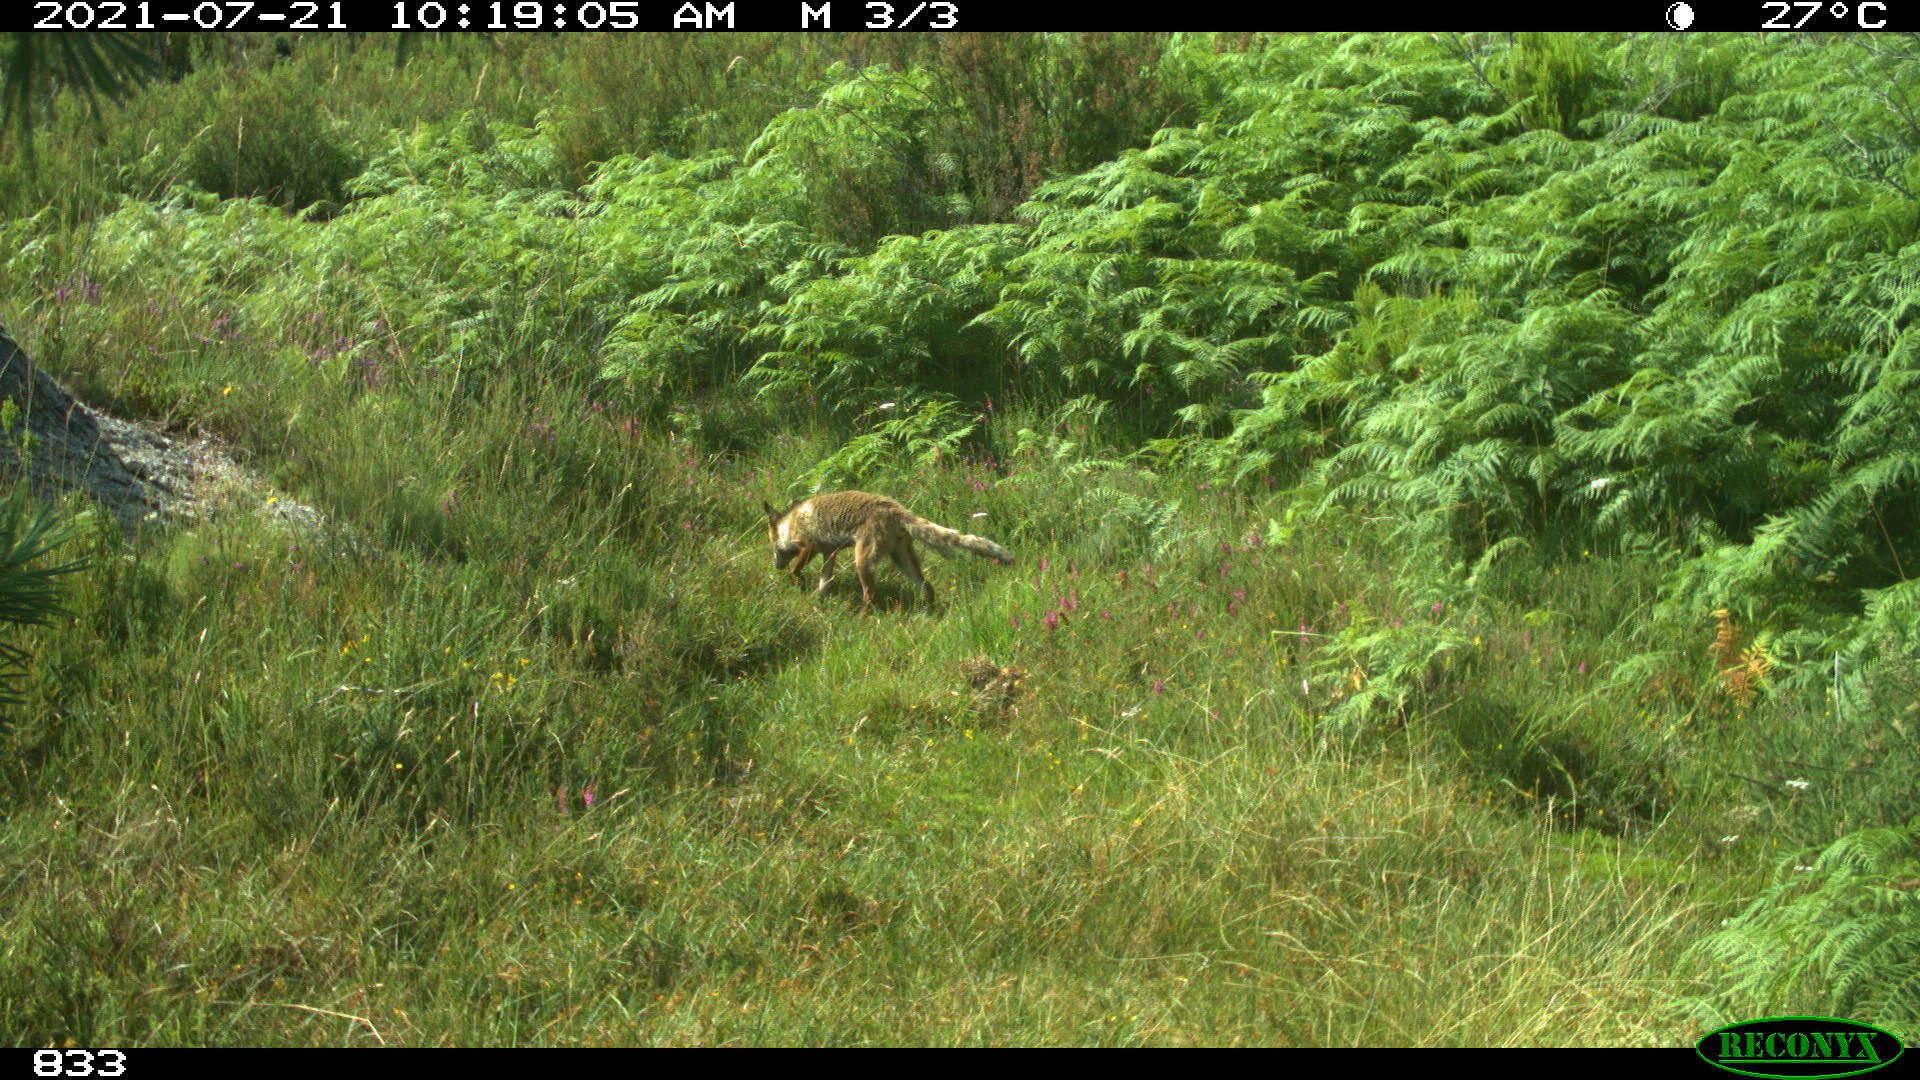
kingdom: Animalia
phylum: Chordata
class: Mammalia
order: Carnivora
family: Canidae
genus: Vulpes
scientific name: Vulpes vulpes
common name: Red fox
